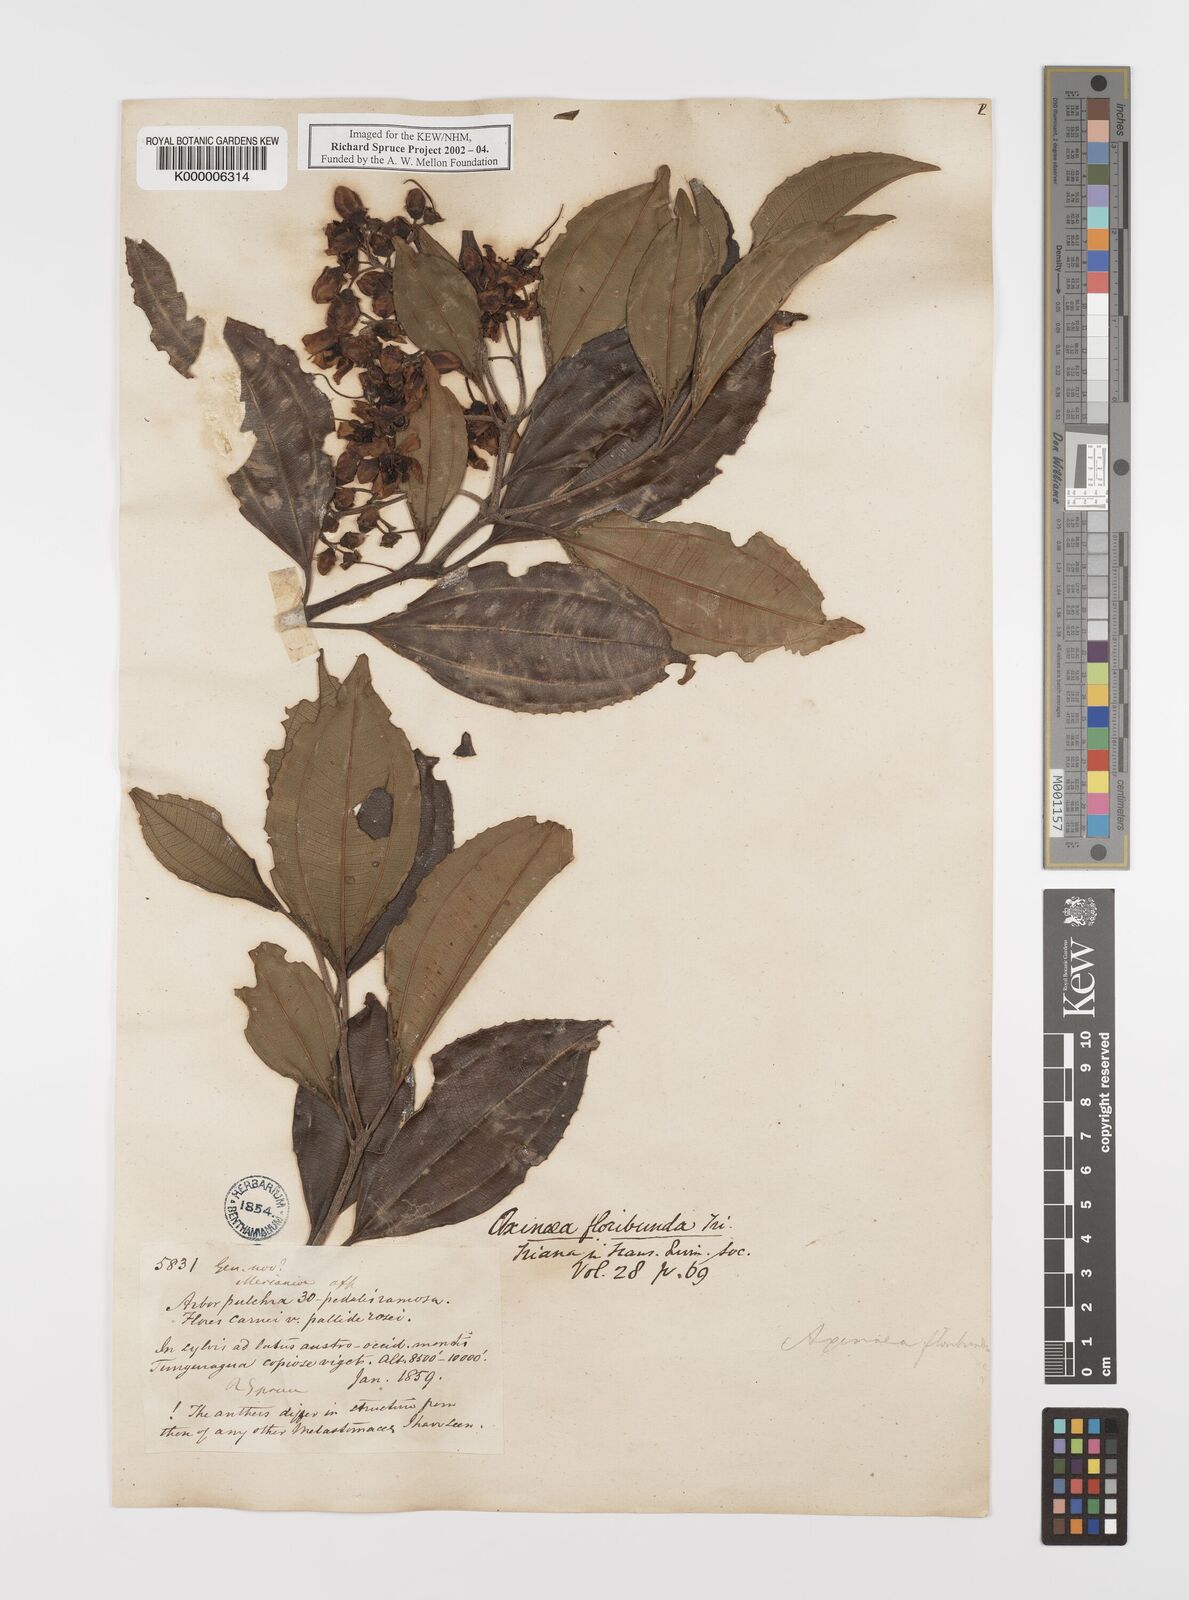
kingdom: Plantae
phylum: Tracheophyta
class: Magnoliopsida
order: Myrtales
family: Melastomataceae
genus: Axinaea
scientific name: Axinaea floribunda
